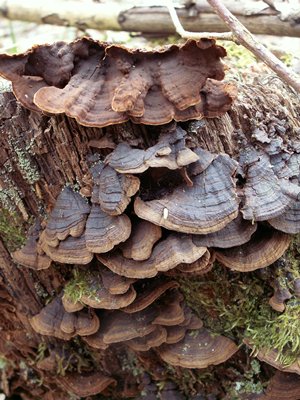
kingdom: Fungi
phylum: Basidiomycota
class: Agaricomycetes
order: Hymenochaetales
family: Hymenochaetaceae
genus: Hymenochaete
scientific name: Hymenochaete rubiginosa
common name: stiv ruslædersvamp
